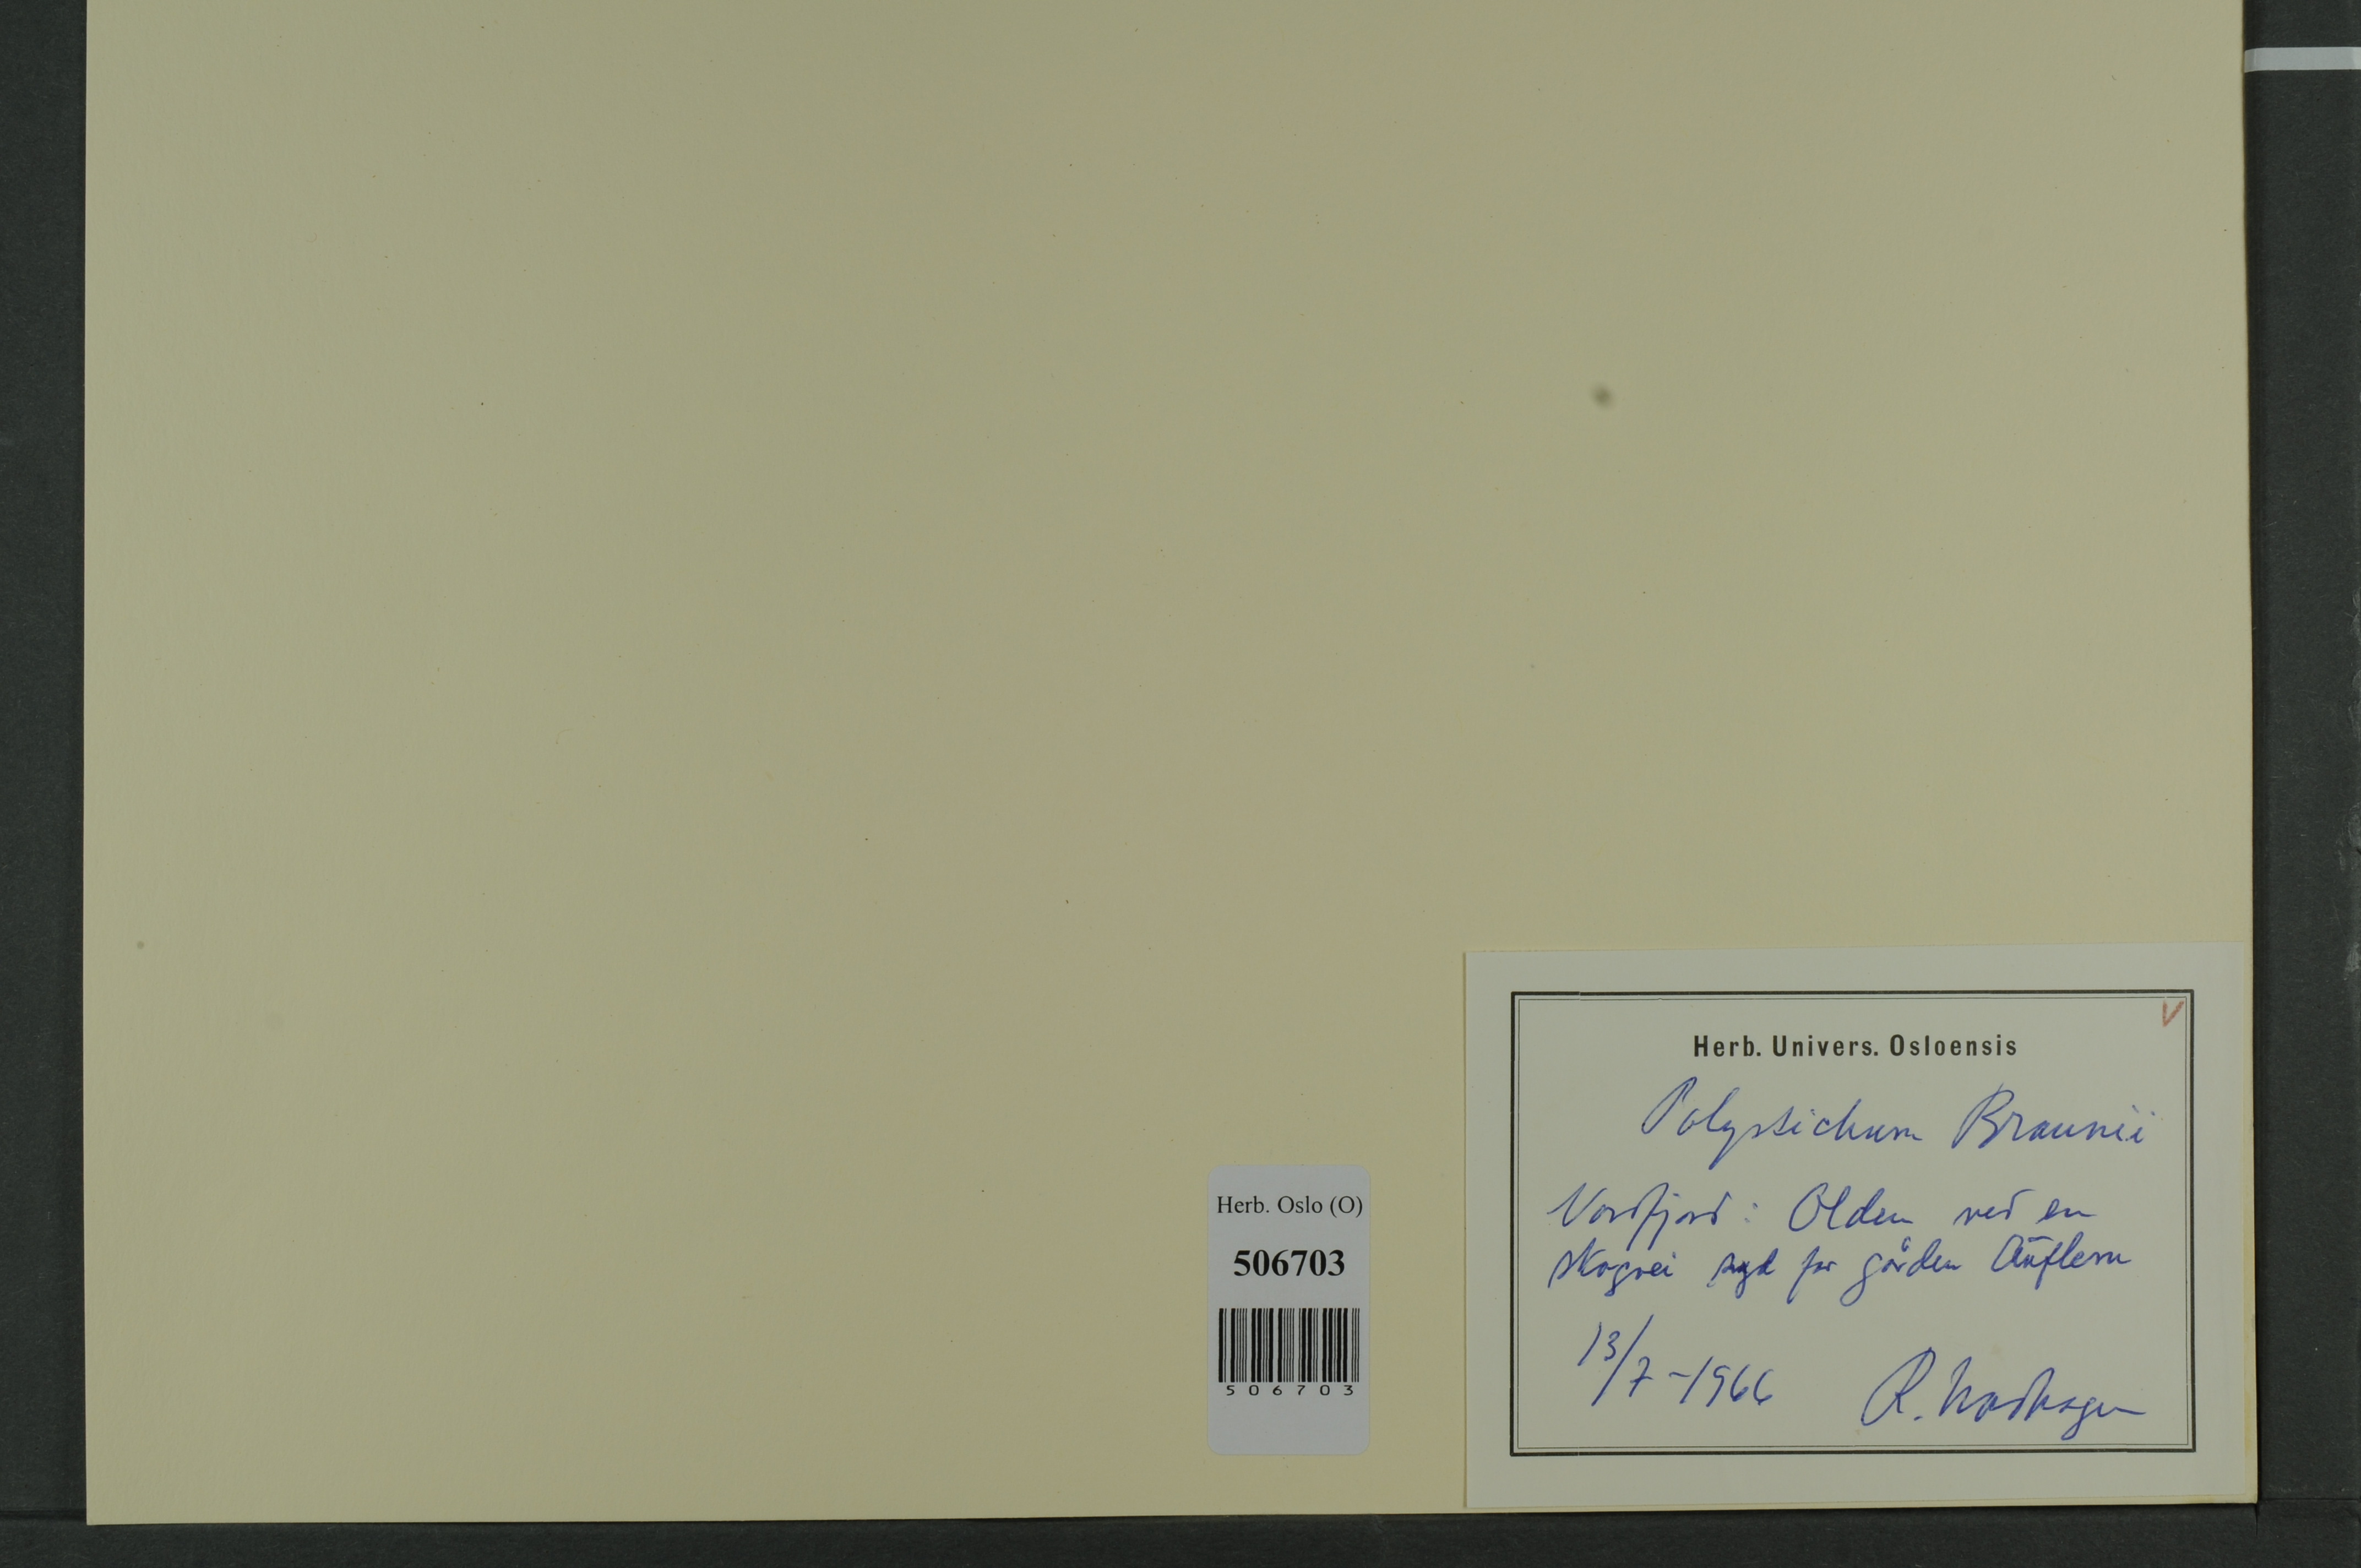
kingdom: Plantae
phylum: Tracheophyta
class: Polypodiopsida
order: Polypodiales
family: Dryopteridaceae
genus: Polystichum
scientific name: Polystichum braunii
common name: Braun's holly fern
